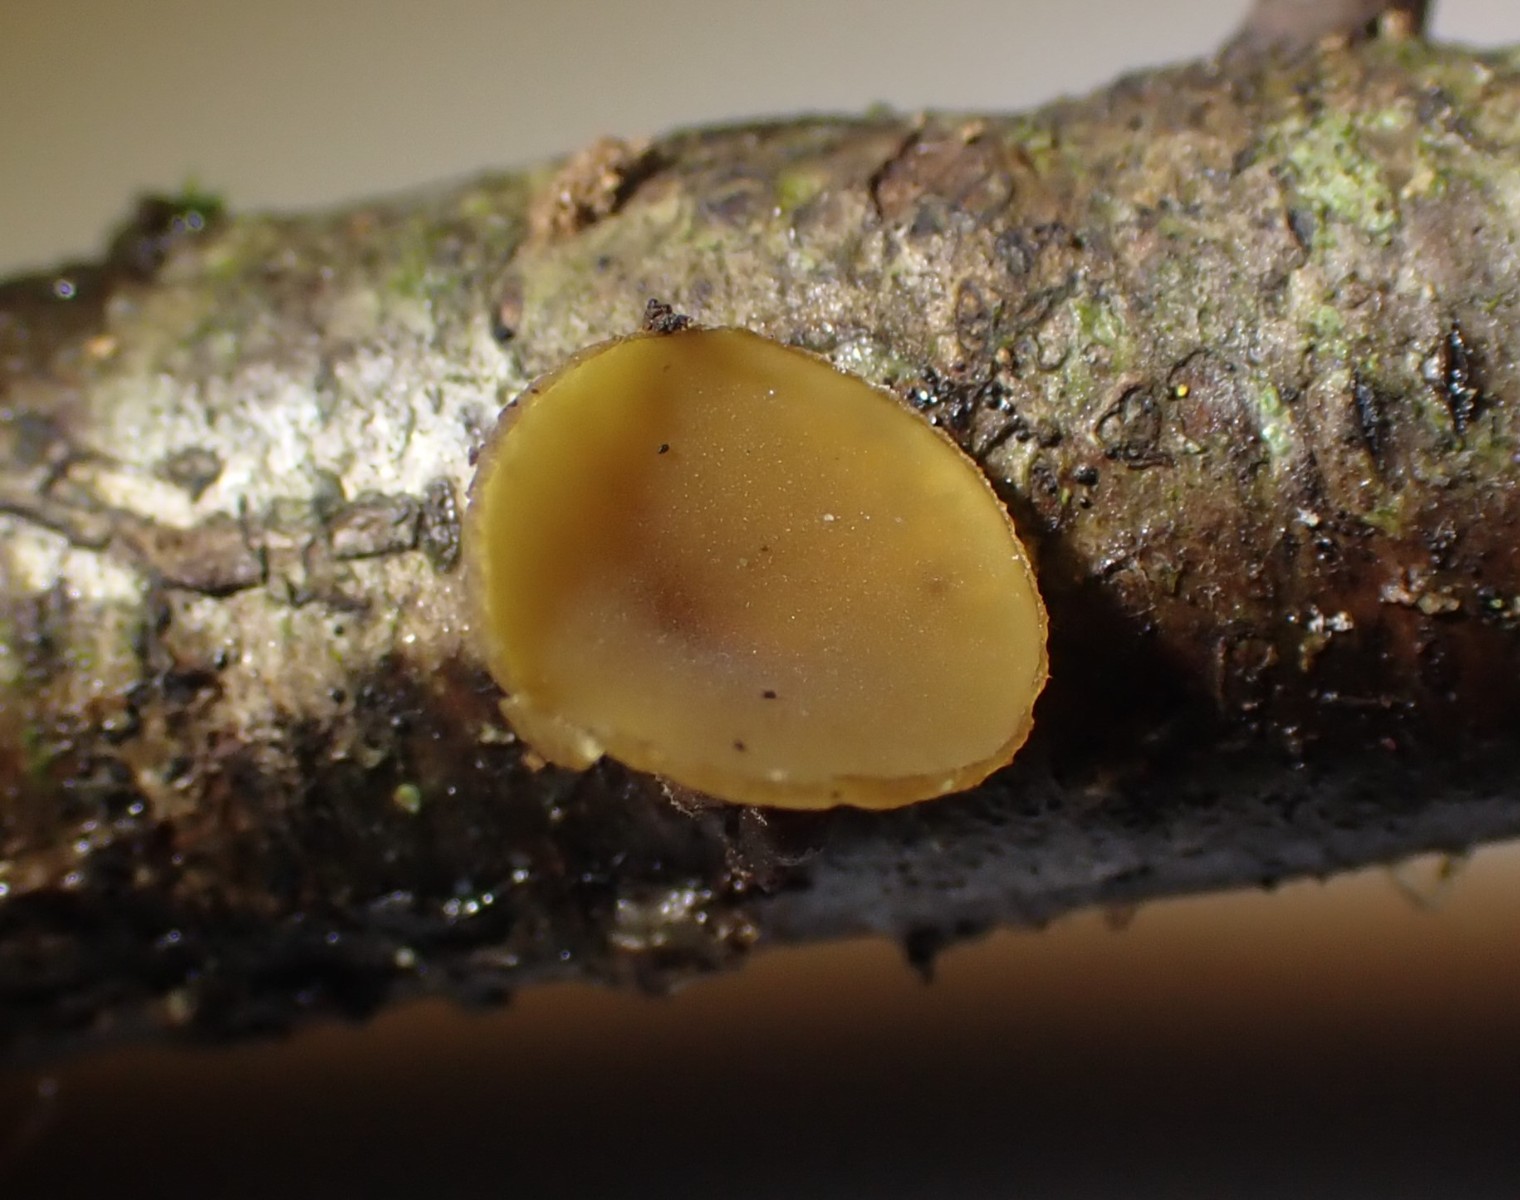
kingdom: Fungi
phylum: Ascomycota
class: Leotiomycetes
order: Helotiales
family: Rutstroemiaceae
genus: Rutstroemia
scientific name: Rutstroemia firma
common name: gren-brunskive
